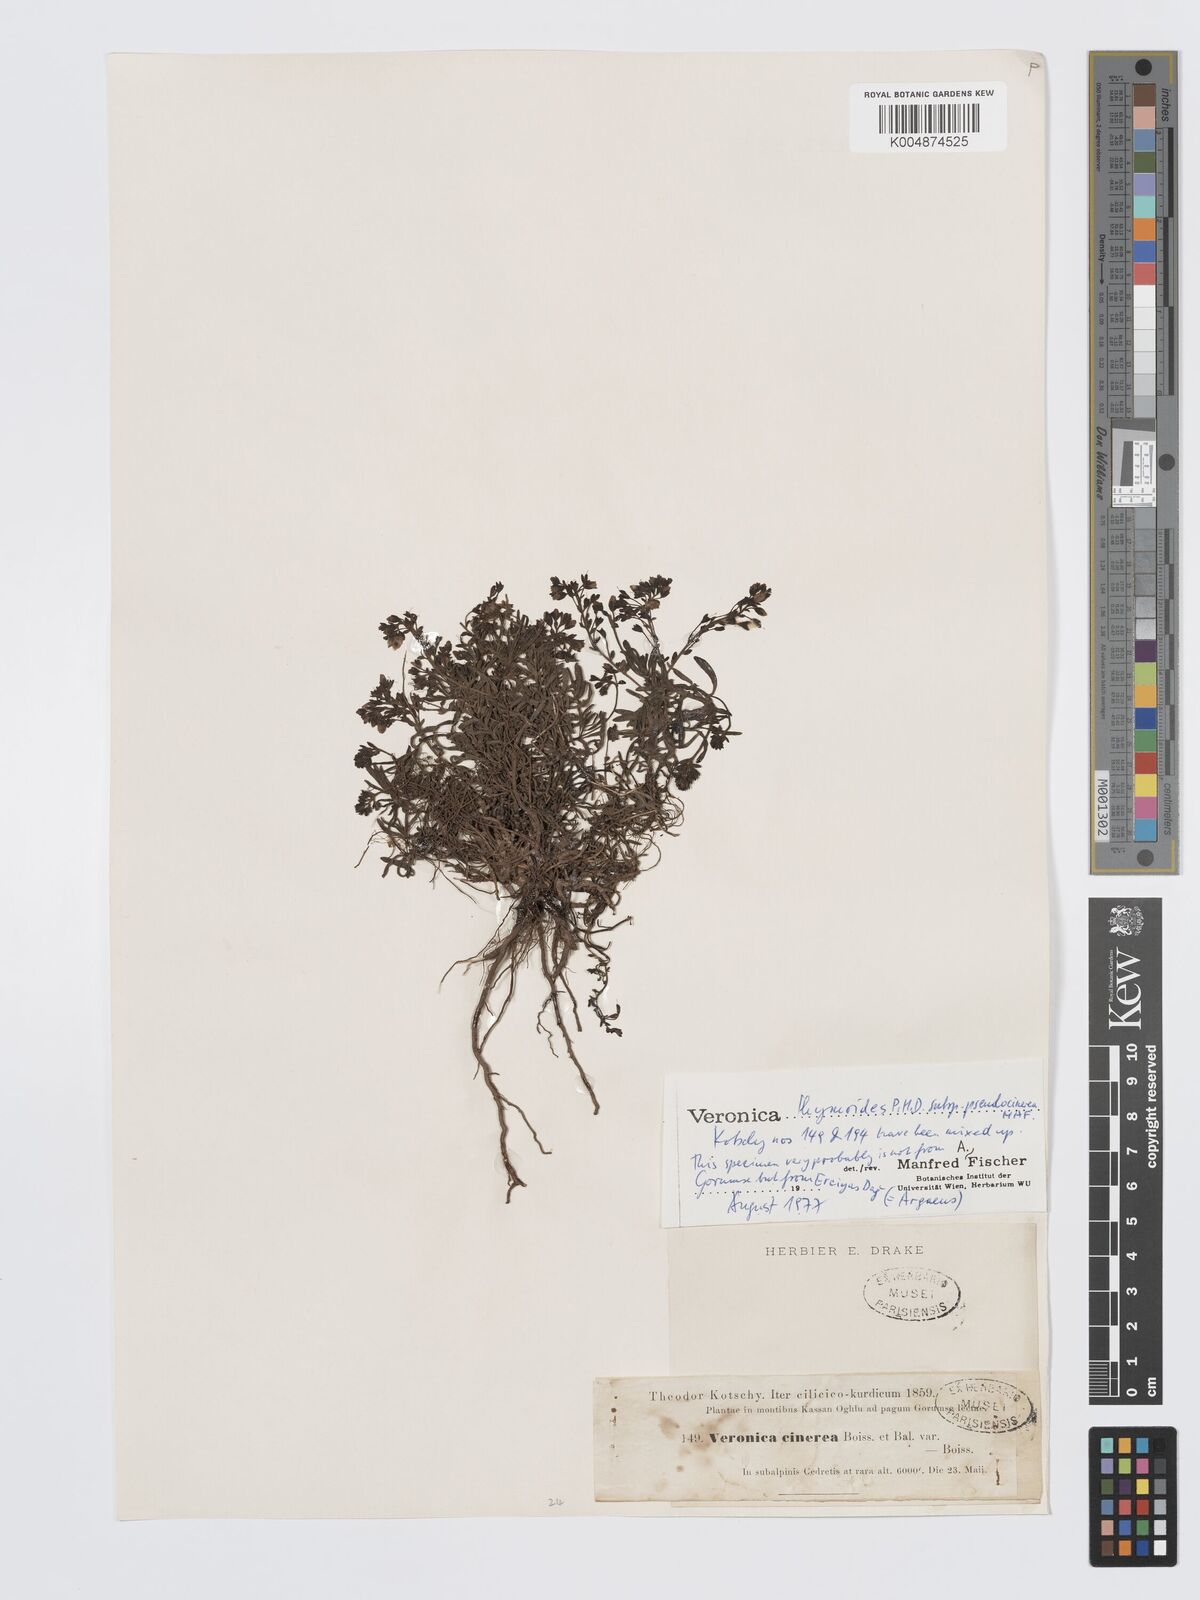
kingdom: Plantae
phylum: Tracheophyta
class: Magnoliopsida
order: Lamiales
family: Plantaginaceae
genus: Veronica
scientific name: Veronica thymoides
